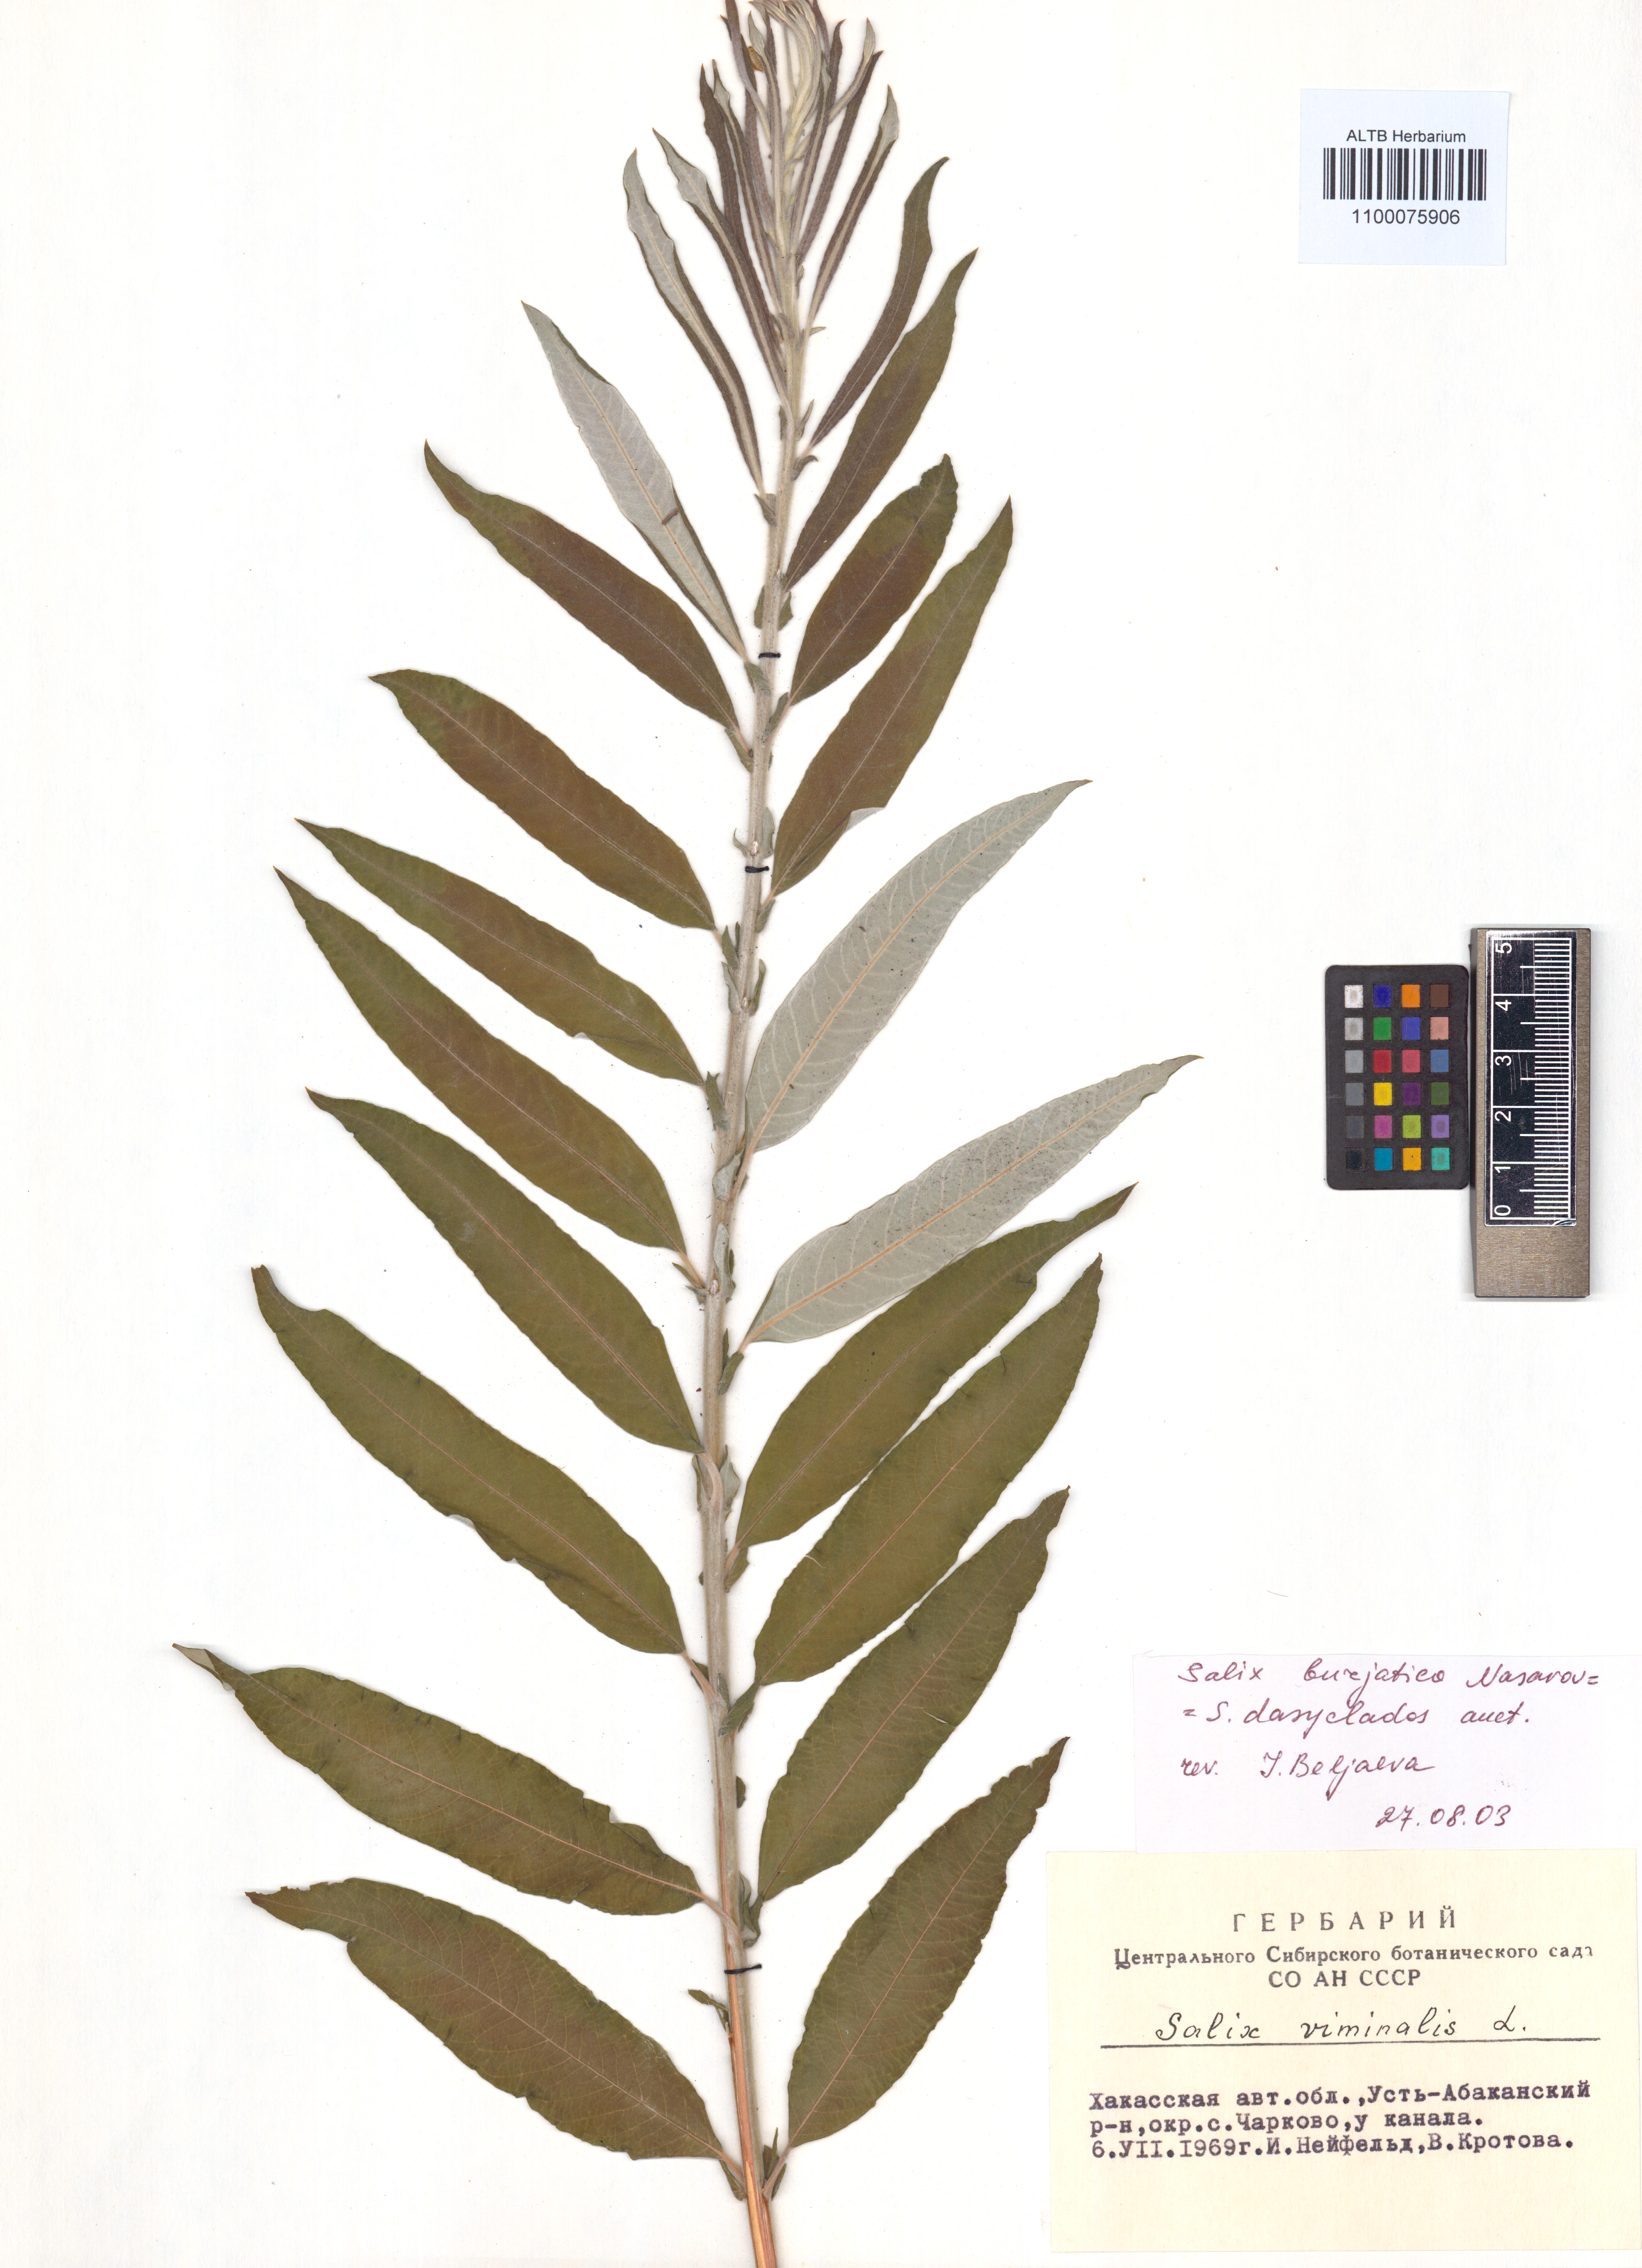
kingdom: Plantae
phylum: Tracheophyta
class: Magnoliopsida
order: Malpighiales
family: Salicaceae
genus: Salix
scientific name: Salix gmelinii
